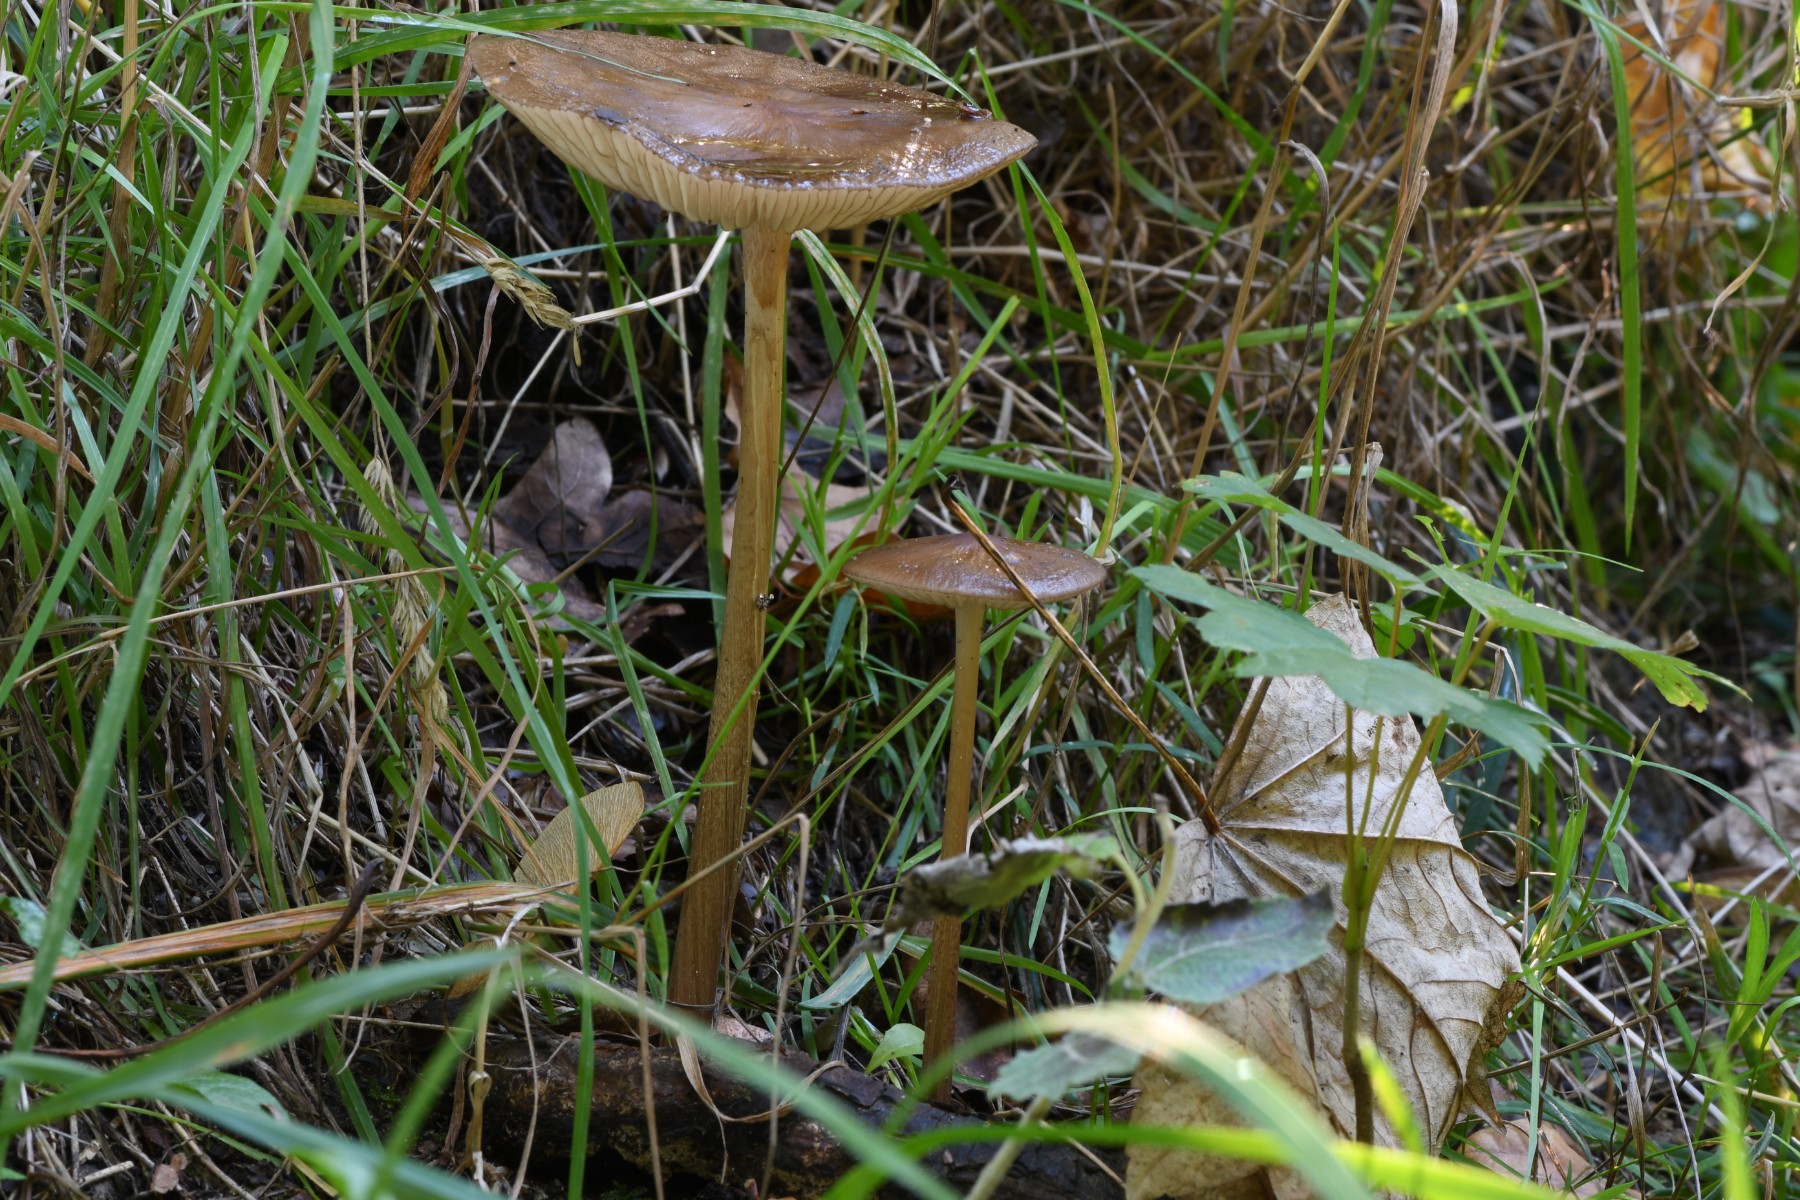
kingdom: Fungi
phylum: Basidiomycota
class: Agaricomycetes
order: Agaricales
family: Physalacriaceae
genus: Hymenopellis
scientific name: Hymenopellis radicata
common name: almindelig pælerodshat
